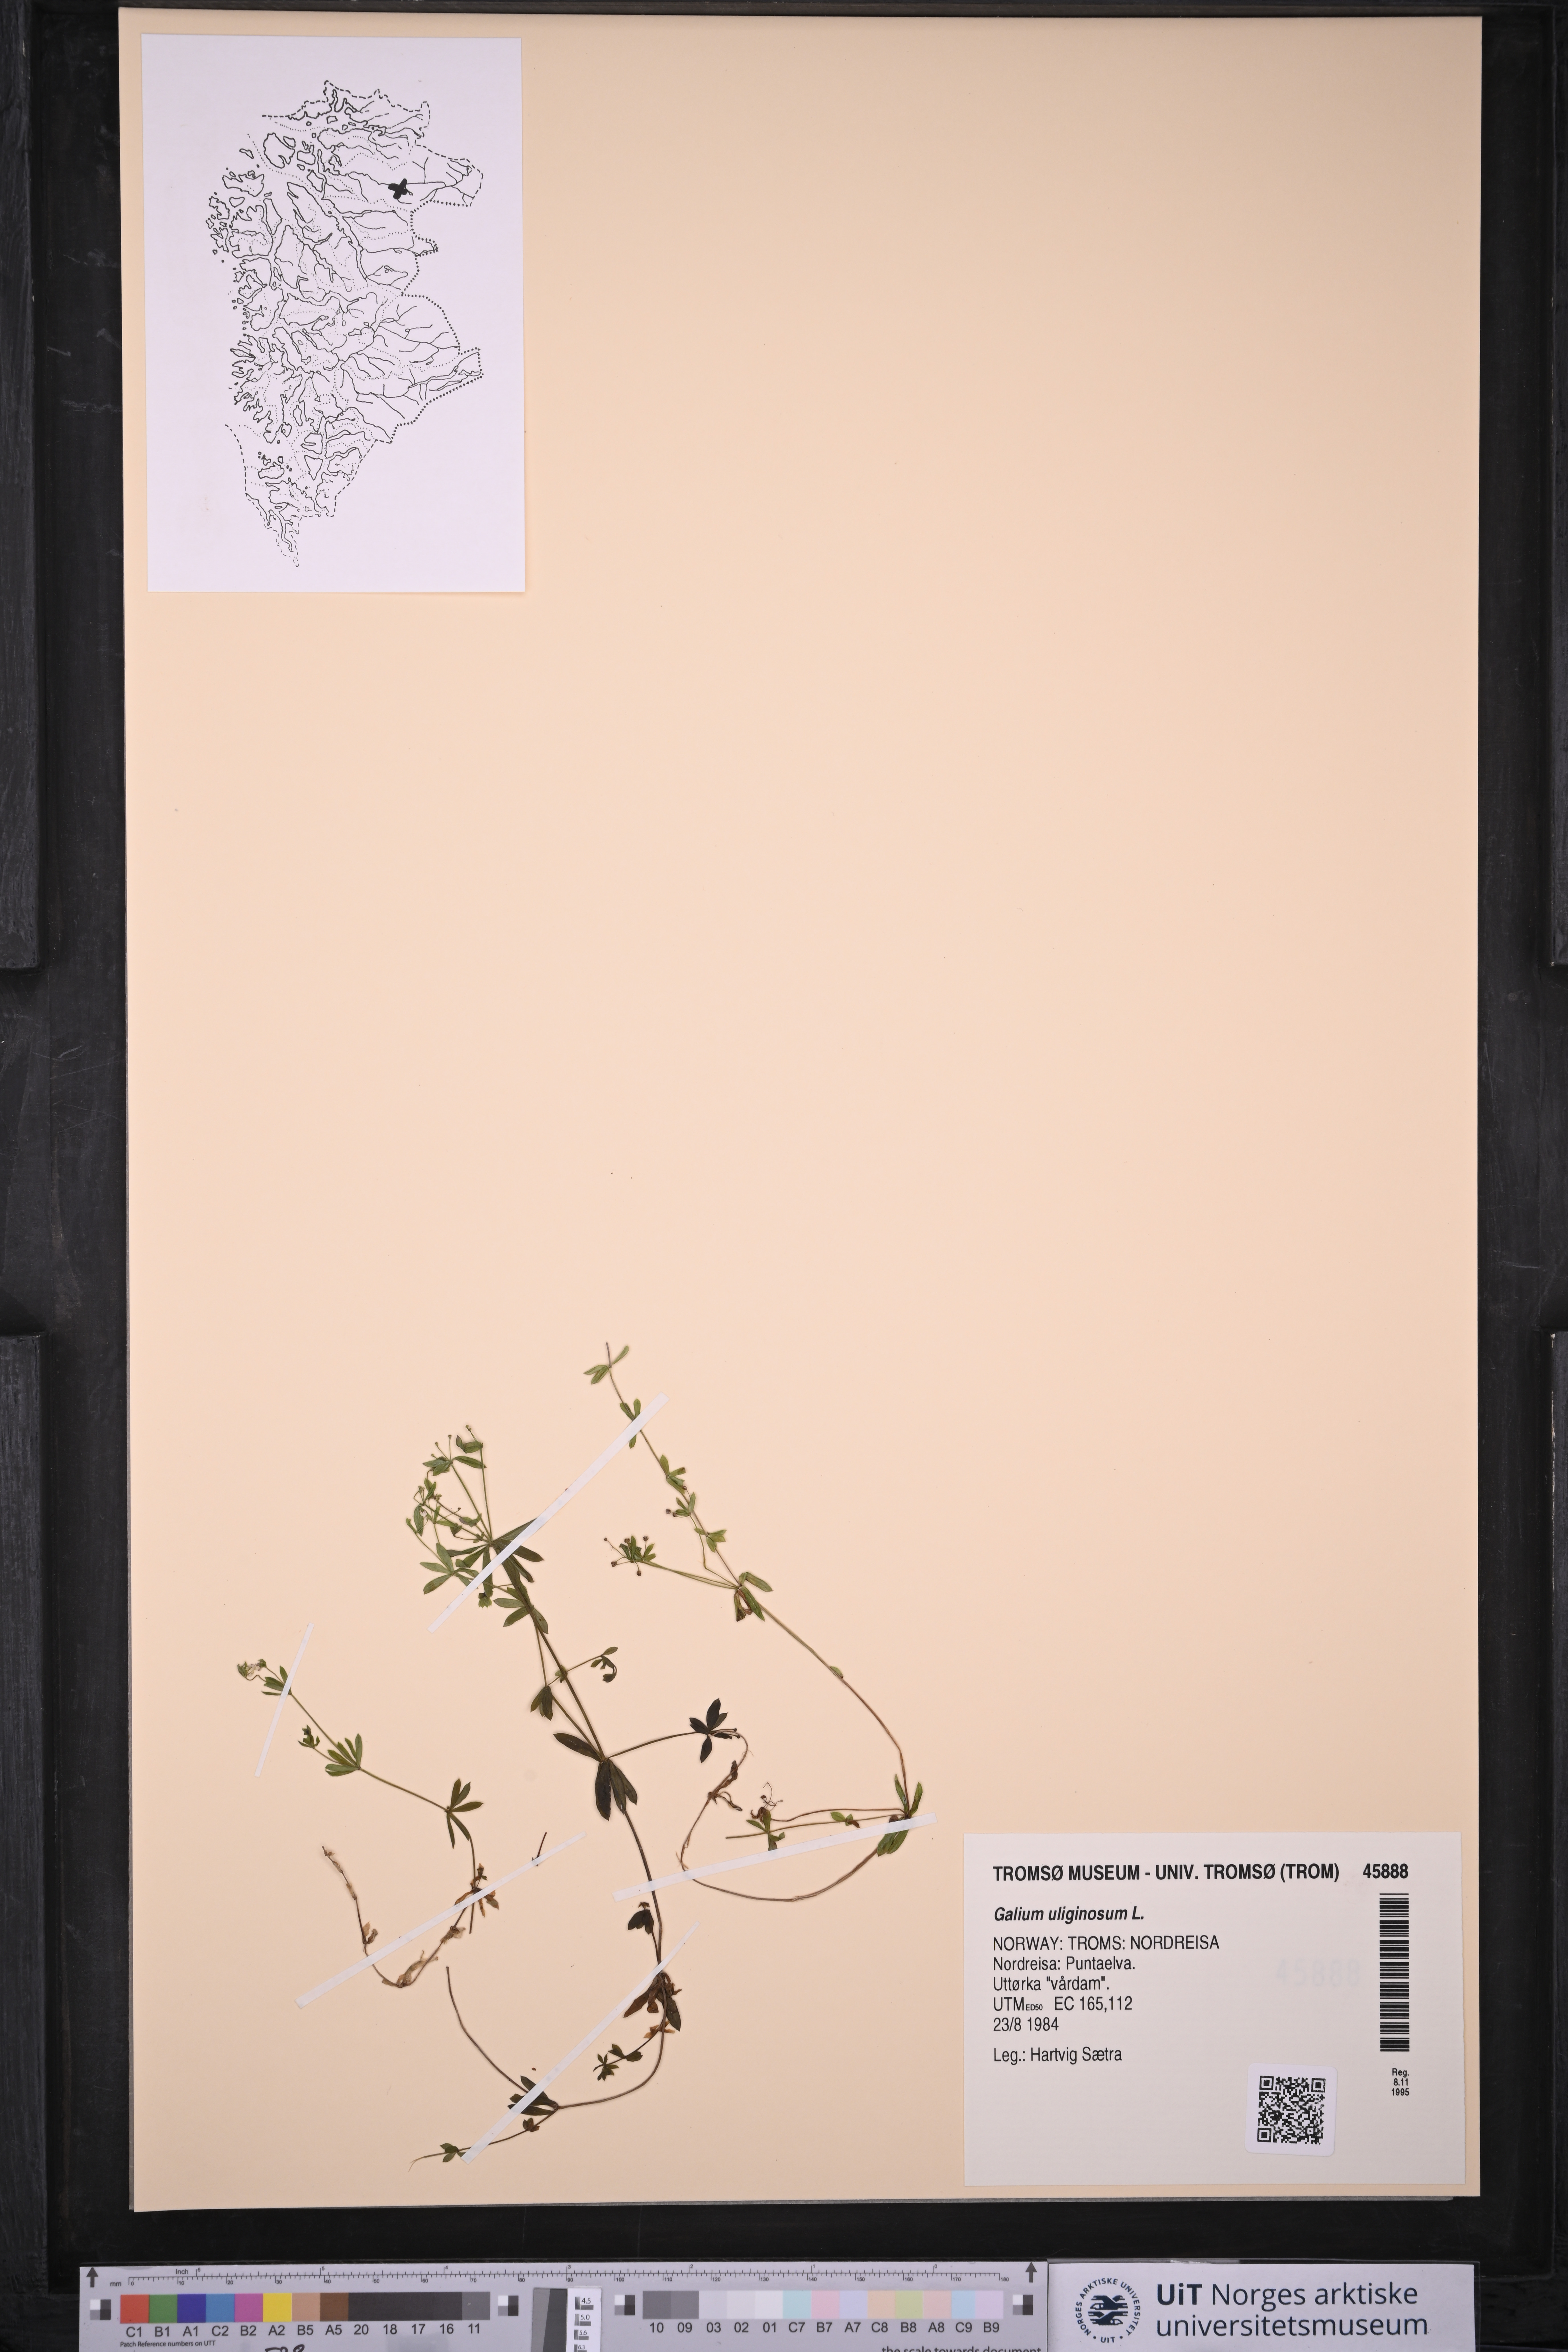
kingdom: Plantae
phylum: Tracheophyta
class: Magnoliopsida
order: Gentianales
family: Rubiaceae
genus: Galium
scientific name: Galium uliginosum
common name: Fen bedstraw
